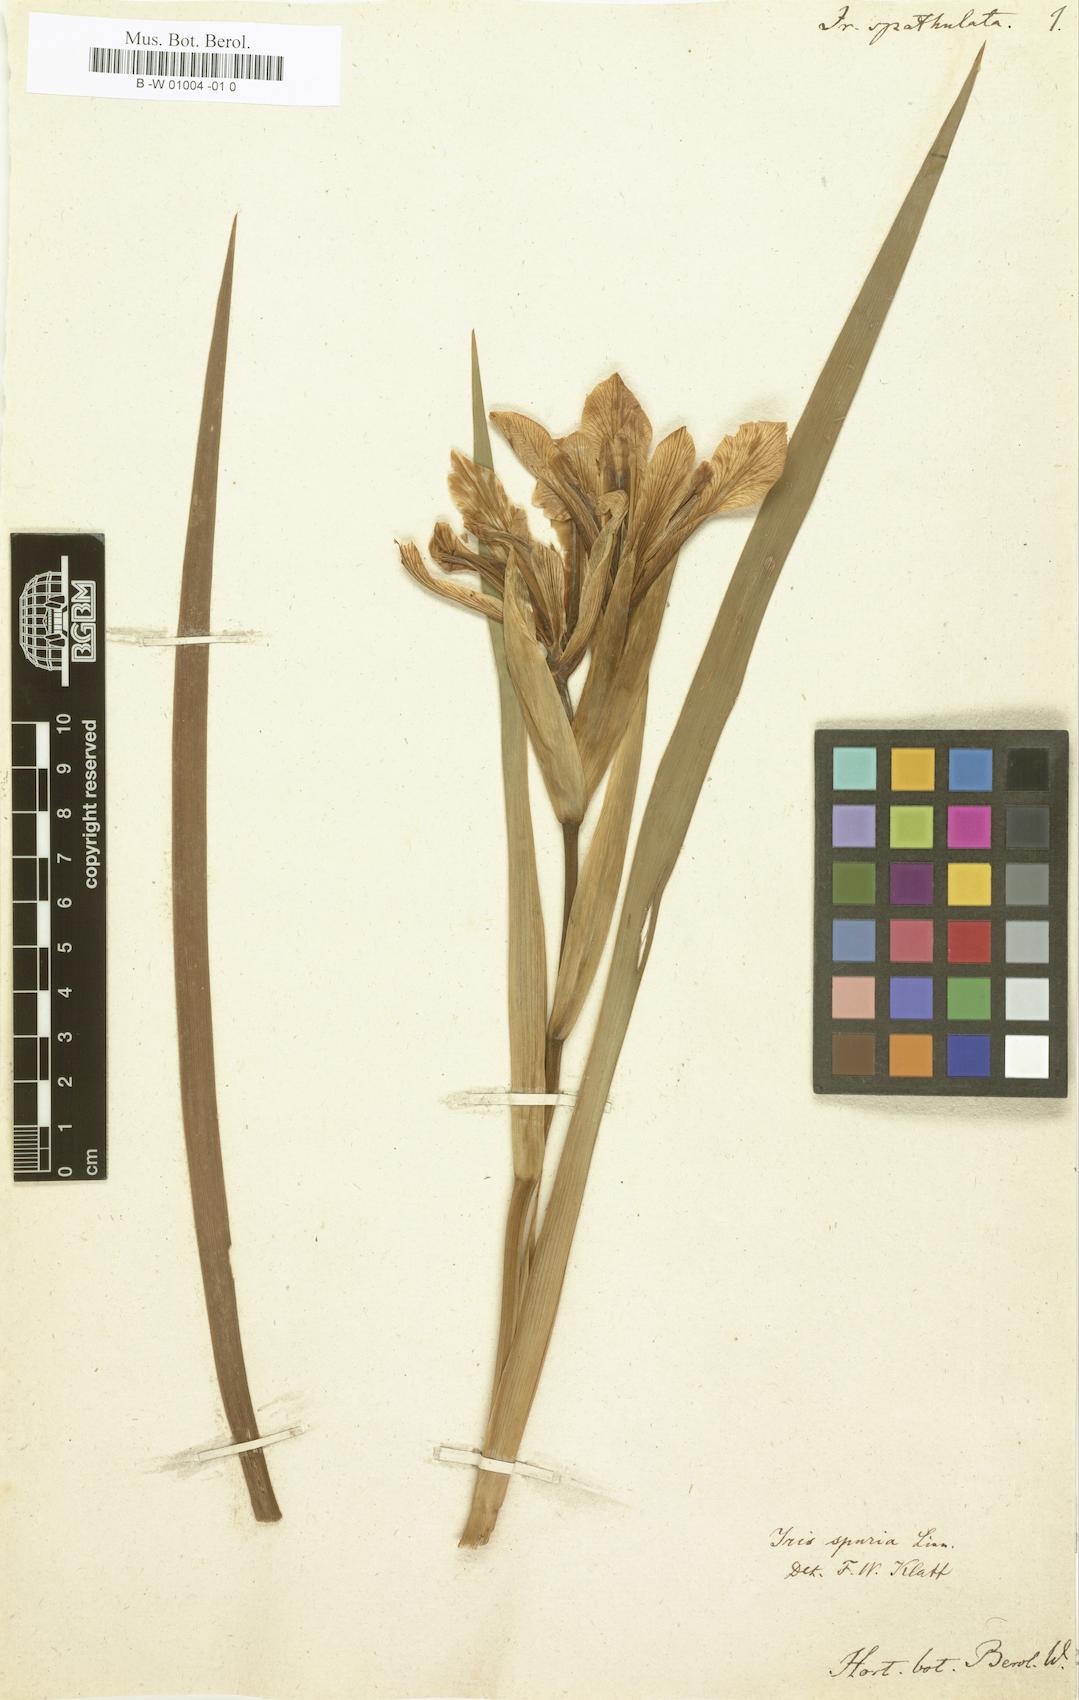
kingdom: Plantae
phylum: Tracheophyta
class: Liliopsida
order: Asparagales
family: Iridaceae
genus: Moraea
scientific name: Moraea spathulata
